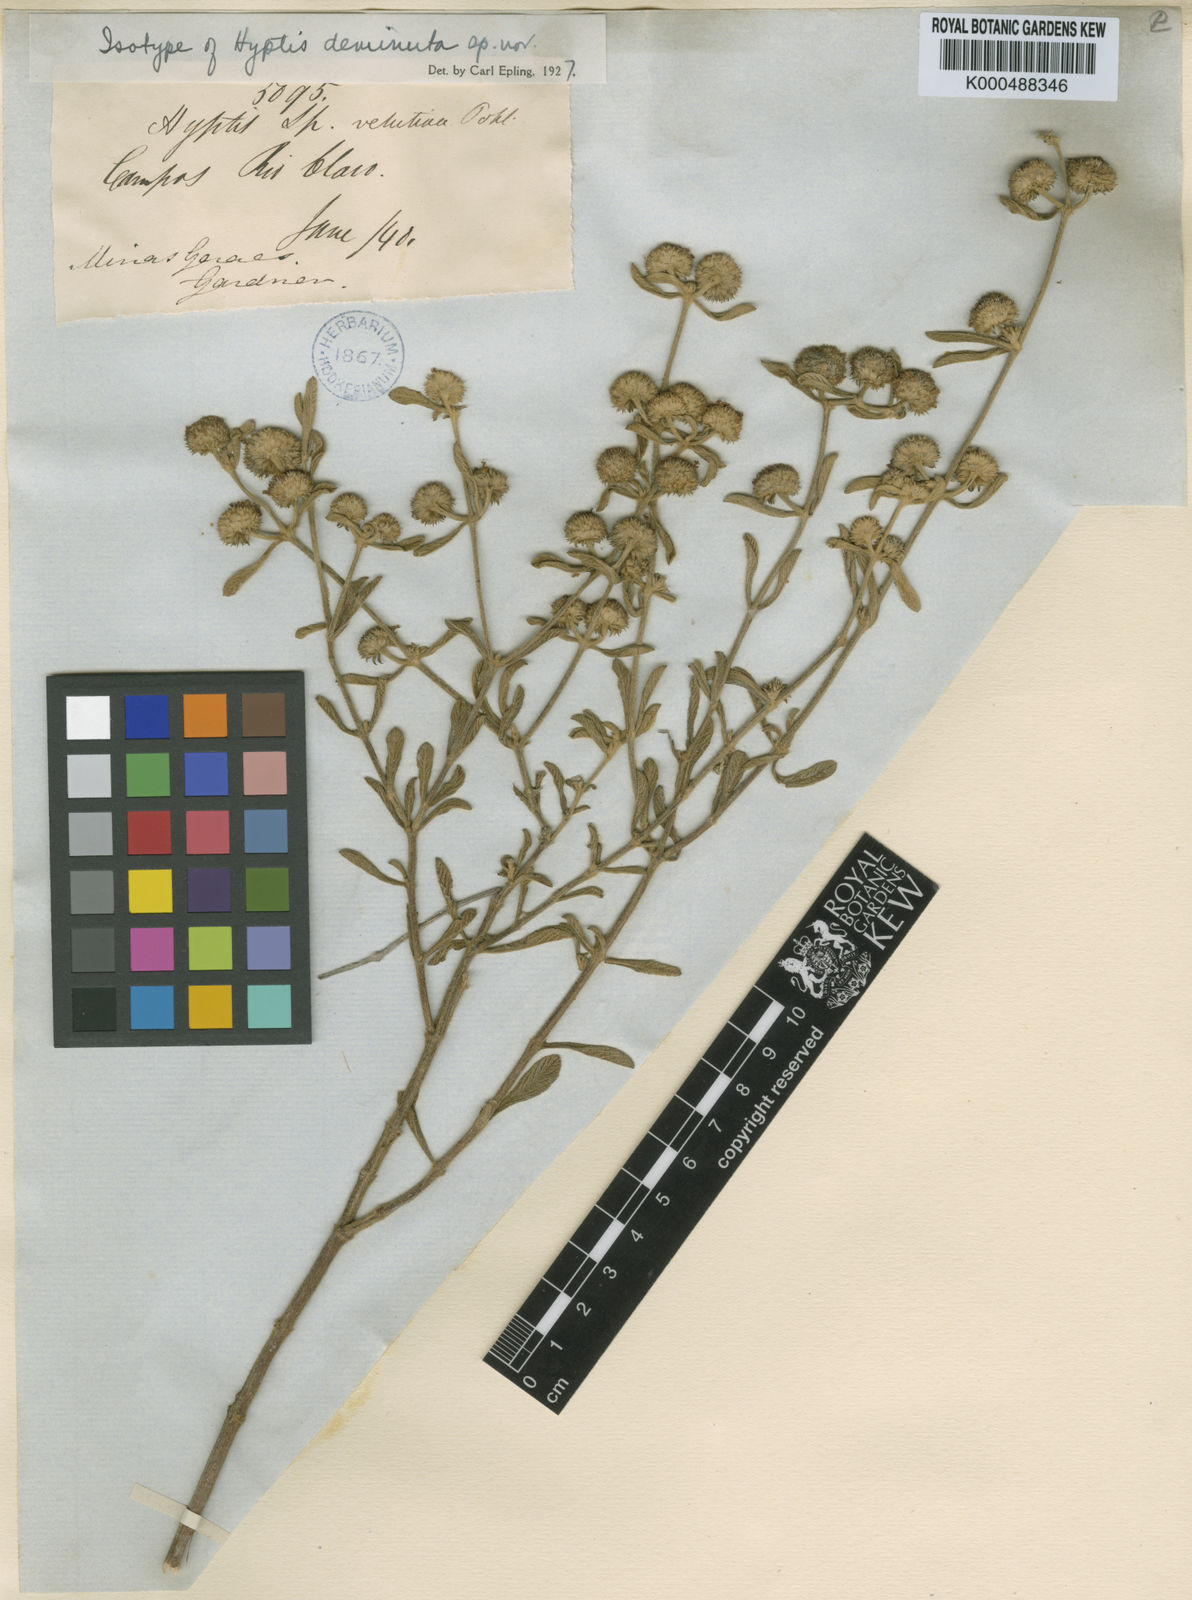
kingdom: Plantae
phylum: Tracheophyta
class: Magnoliopsida
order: Lamiales
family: Lamiaceae
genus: Hyptis
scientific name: Hyptis deminuta
